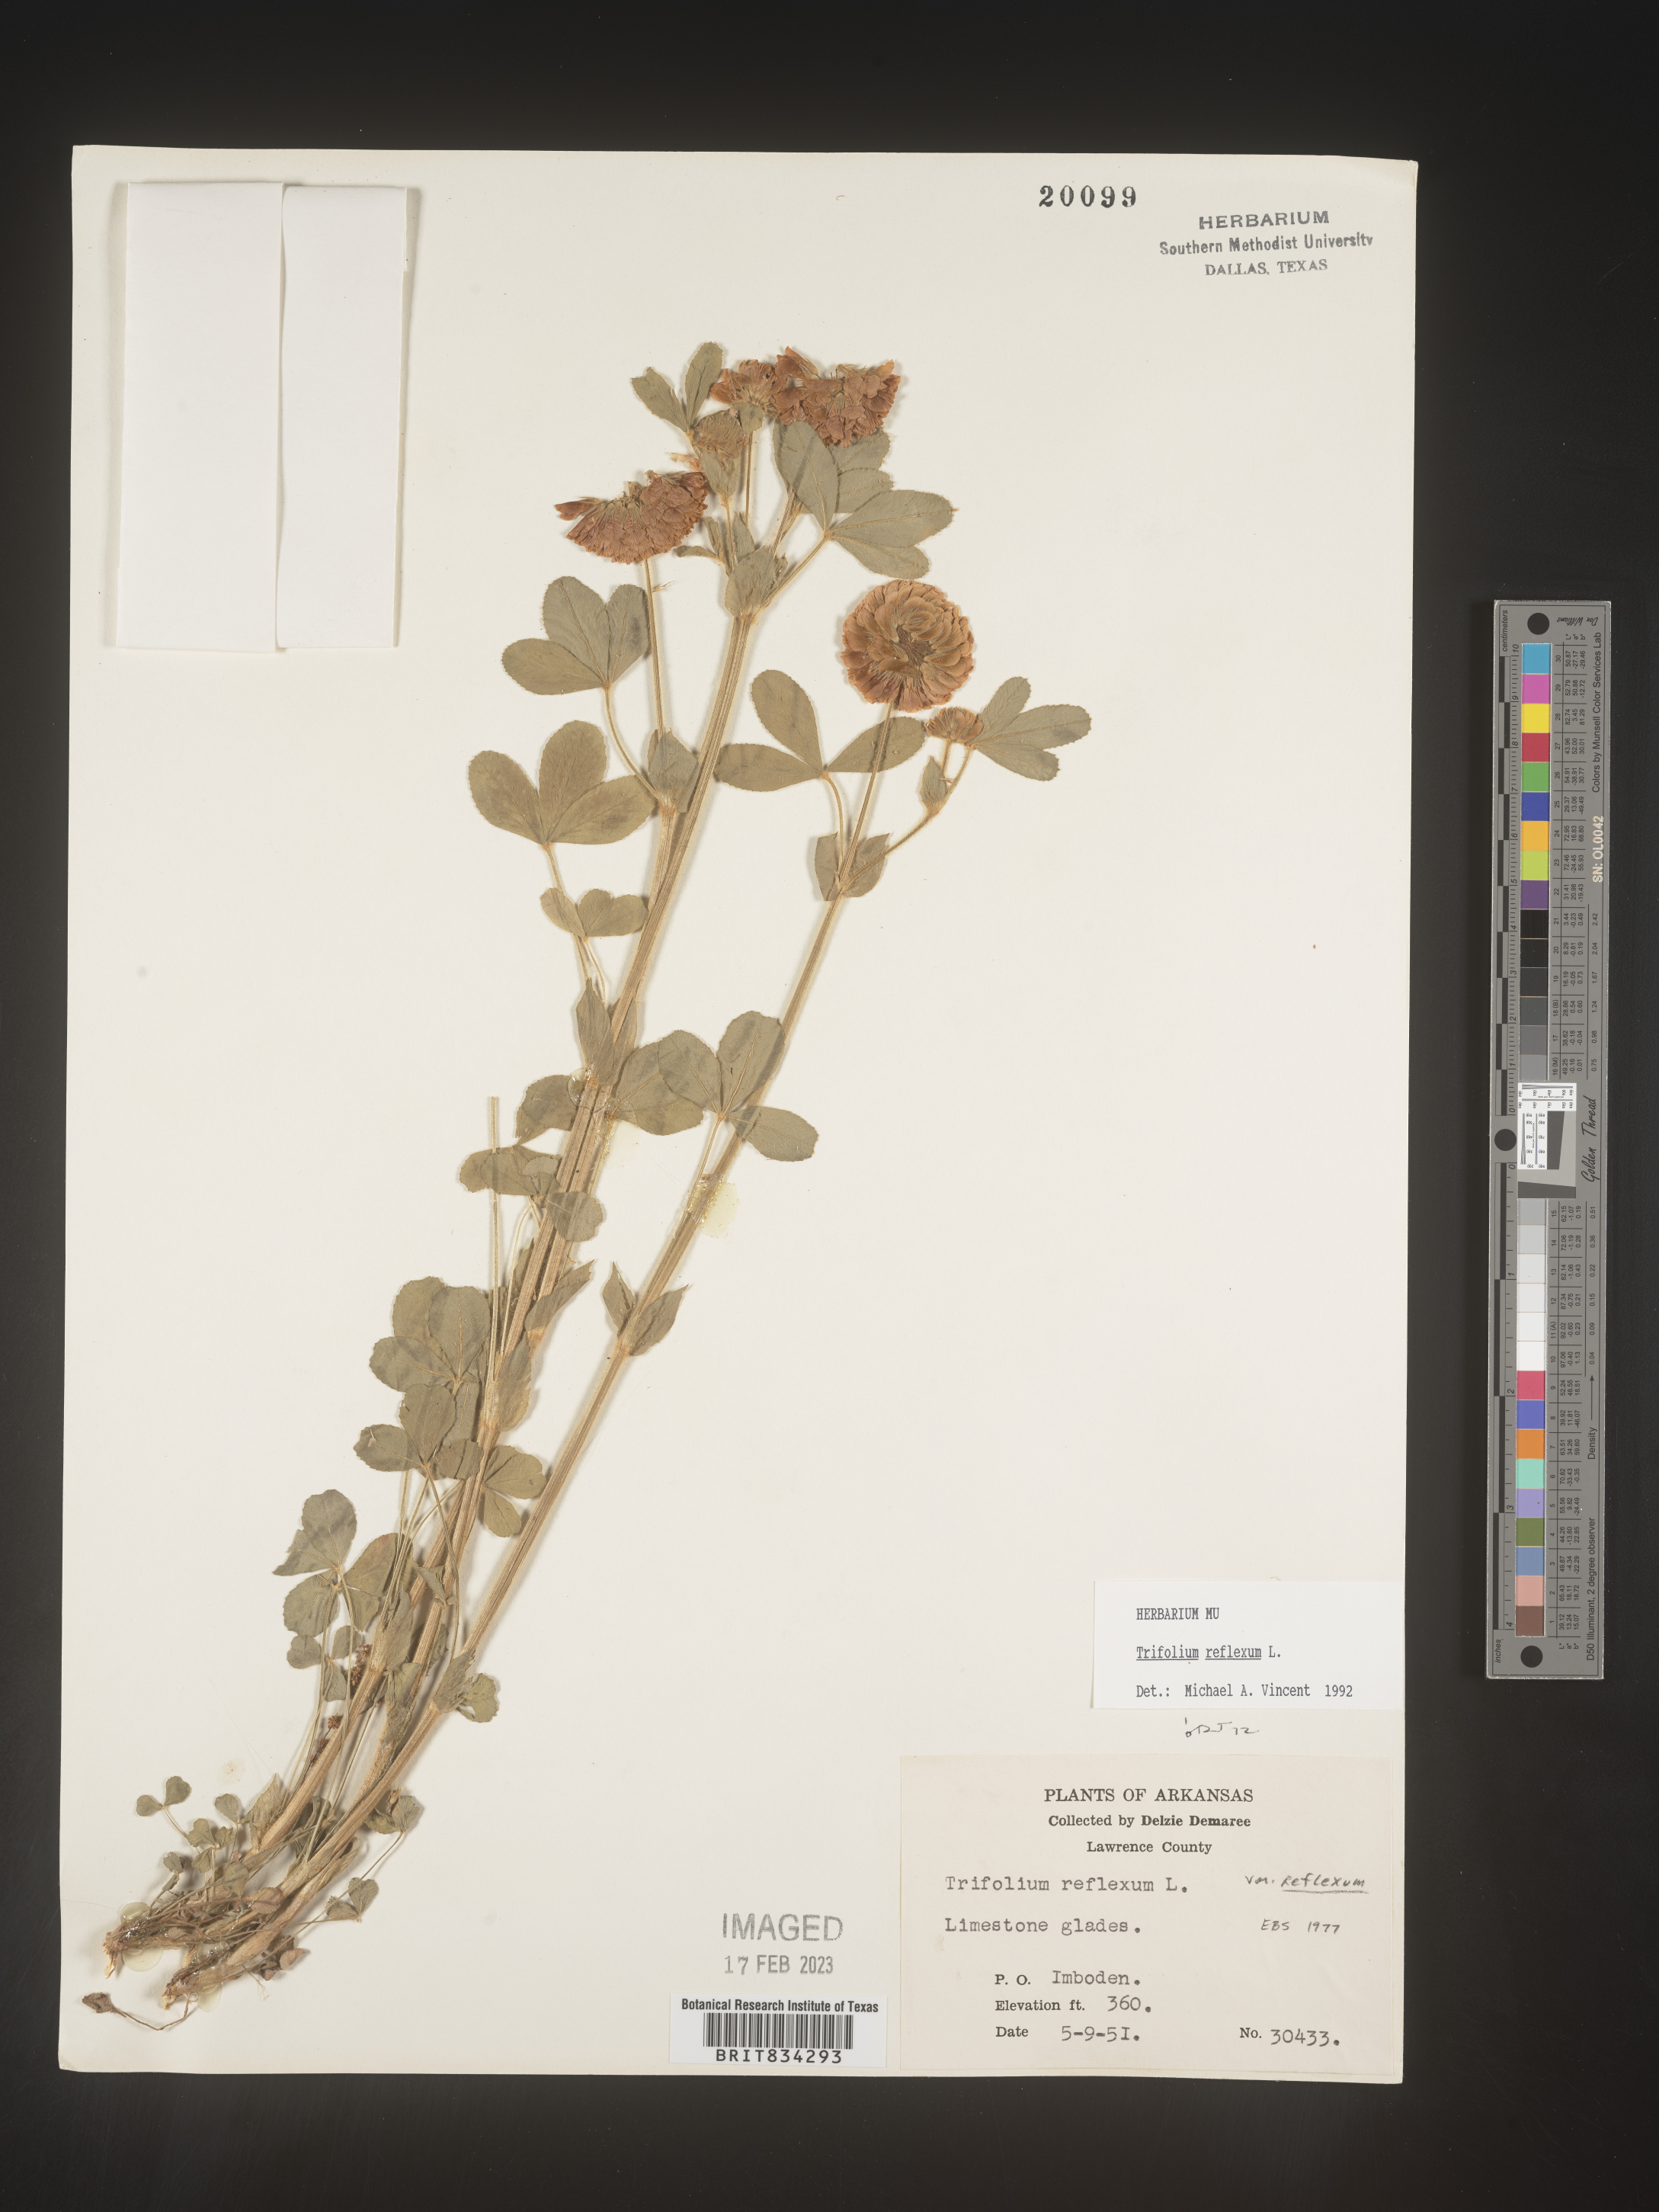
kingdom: Plantae
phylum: Tracheophyta
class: Magnoliopsida
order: Fabales
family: Fabaceae
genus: Trifolium
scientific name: Trifolium reflexum
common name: Buffalo clover
